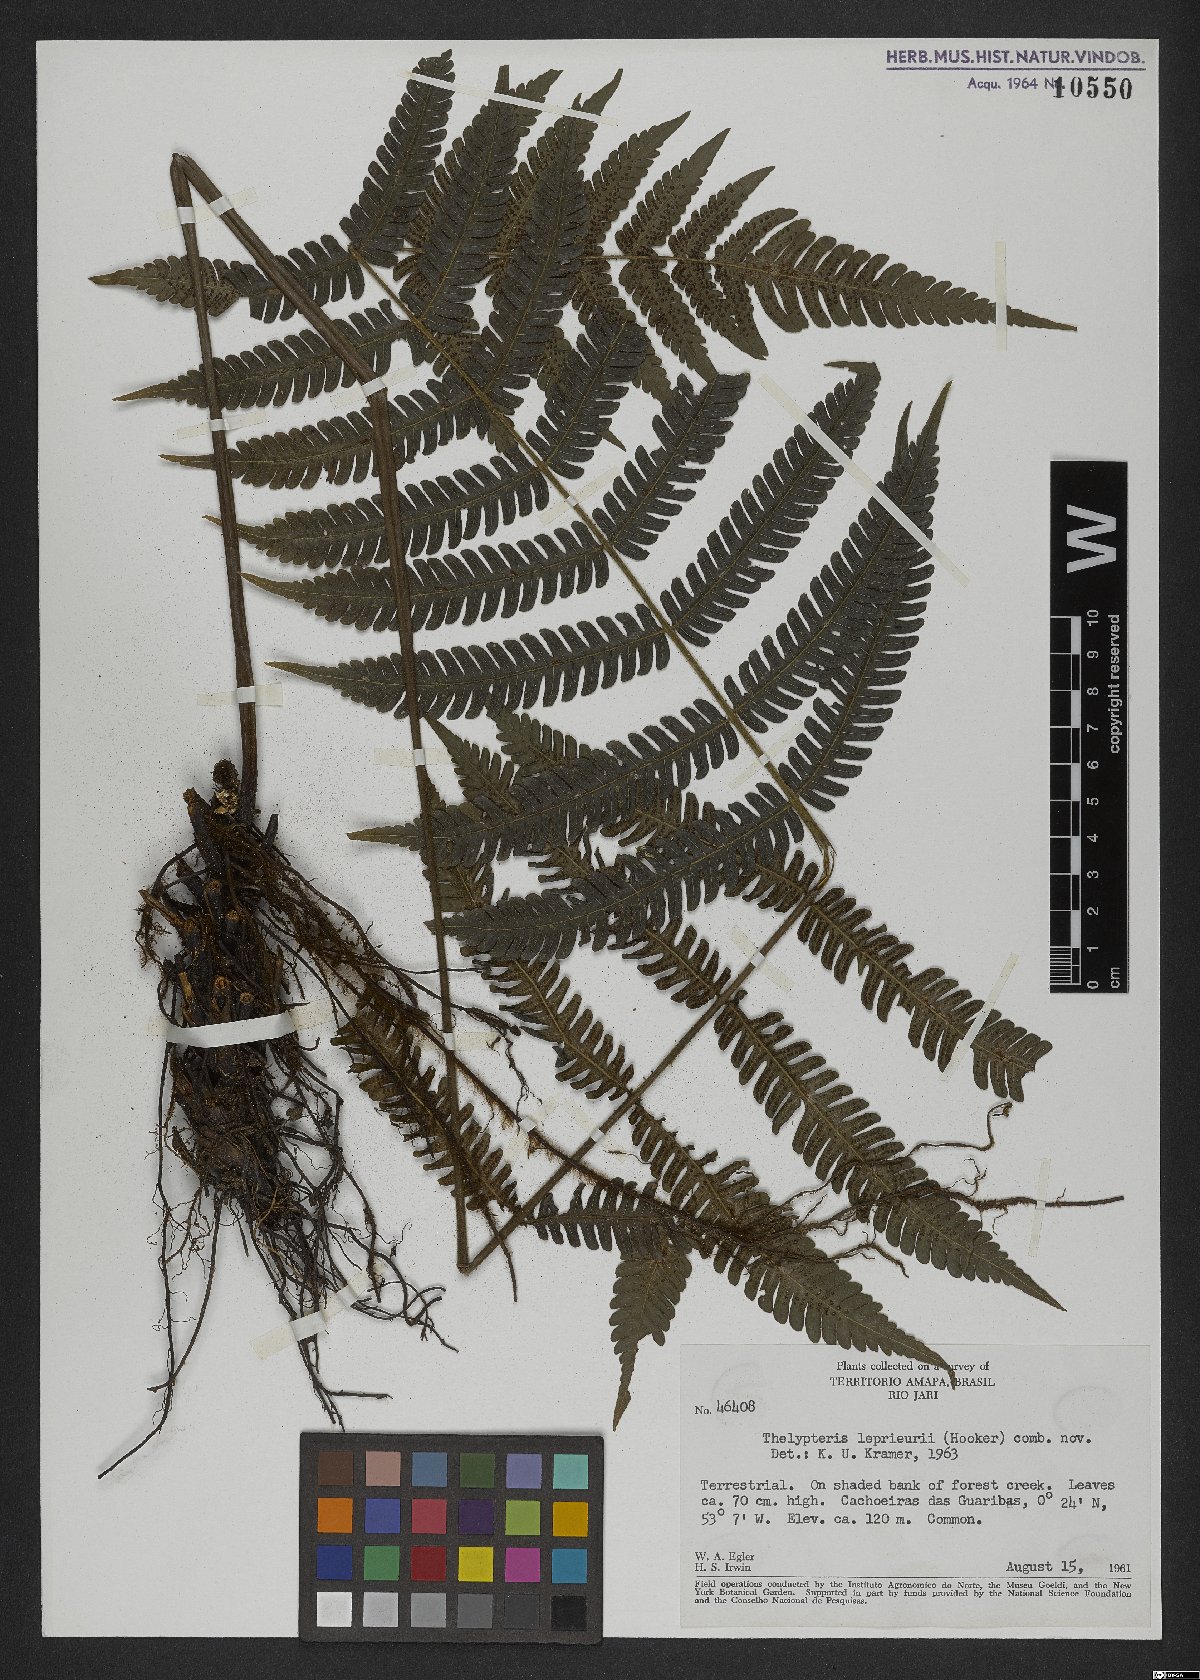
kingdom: Plantae
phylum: Tracheophyta
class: Polypodiopsida
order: Polypodiales
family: Thelypteridaceae
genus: Steiropteris
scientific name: Steiropteris leprieurii
